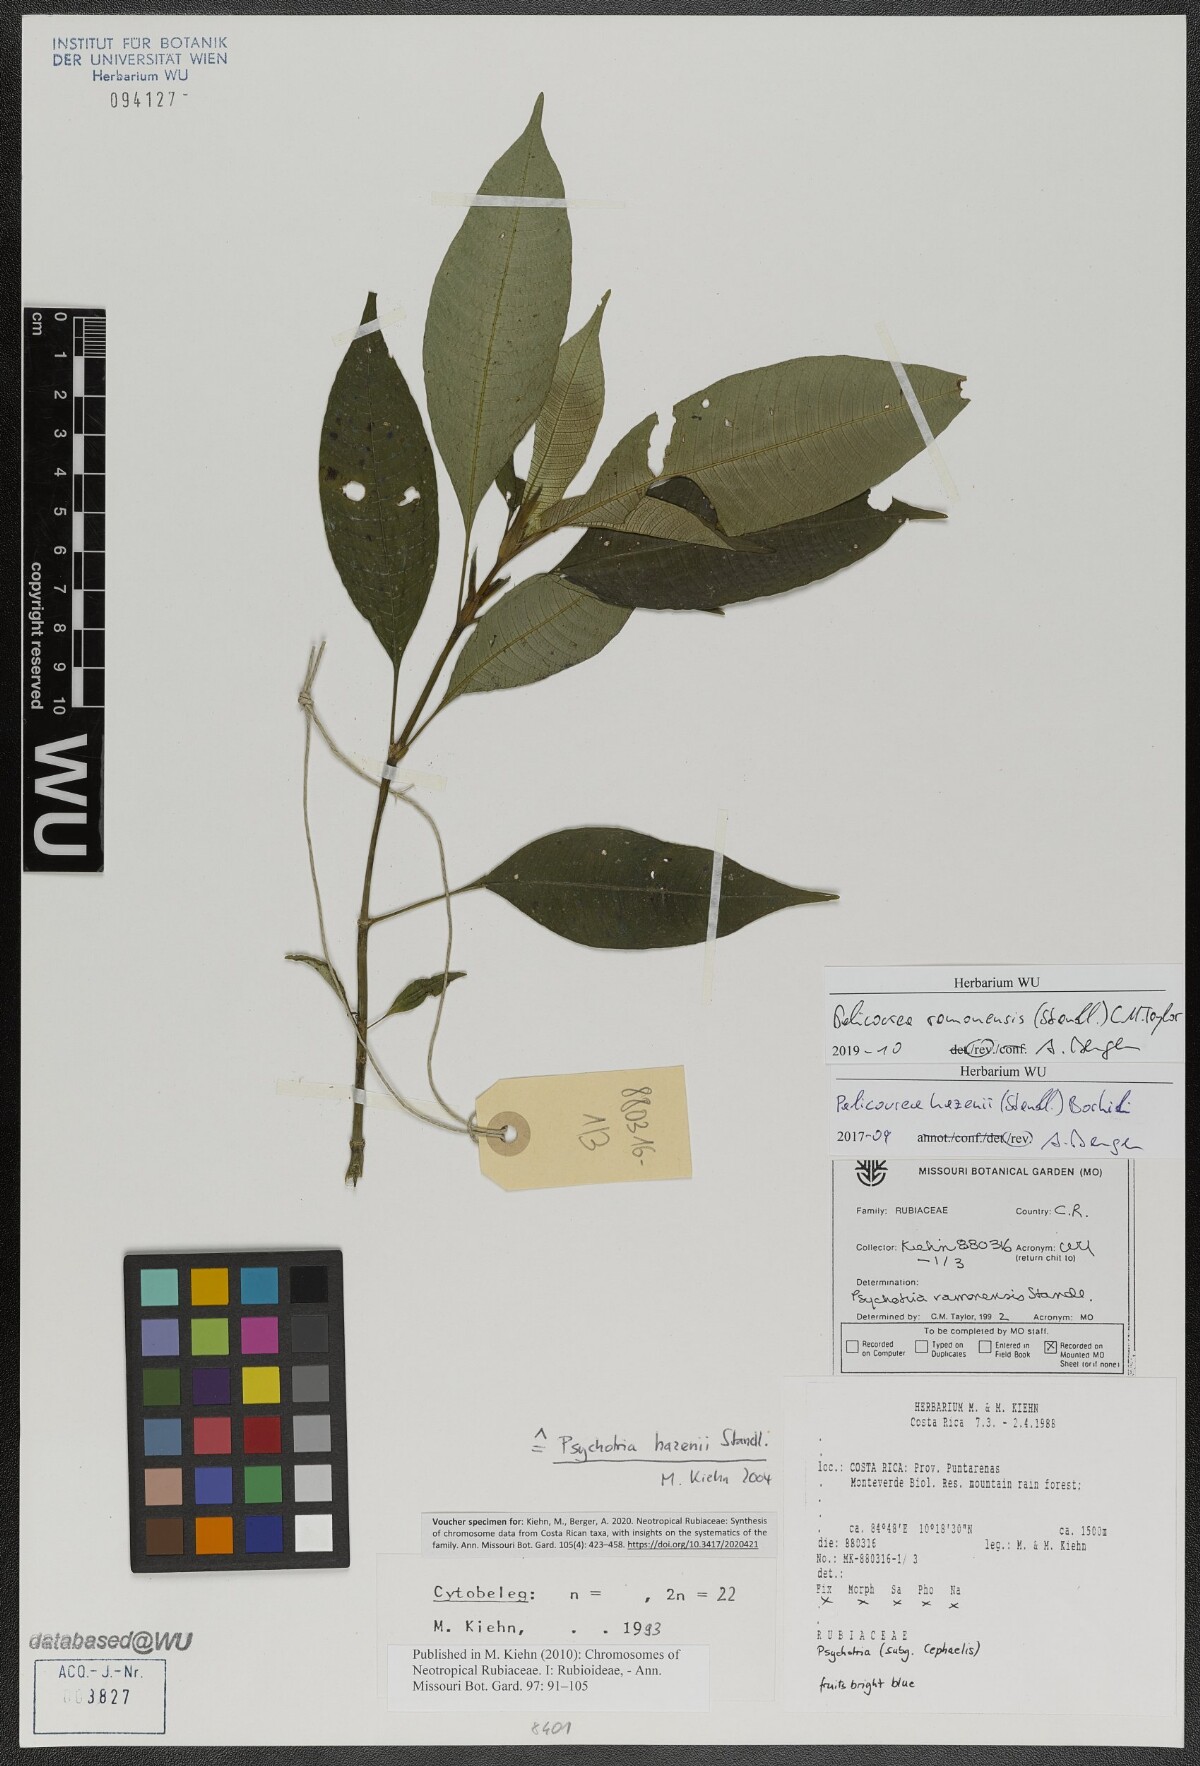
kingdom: Plantae
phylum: Tracheophyta
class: Magnoliopsida
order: Gentianales
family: Rubiaceae
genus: Palicourea
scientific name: Palicourea ramonensis
